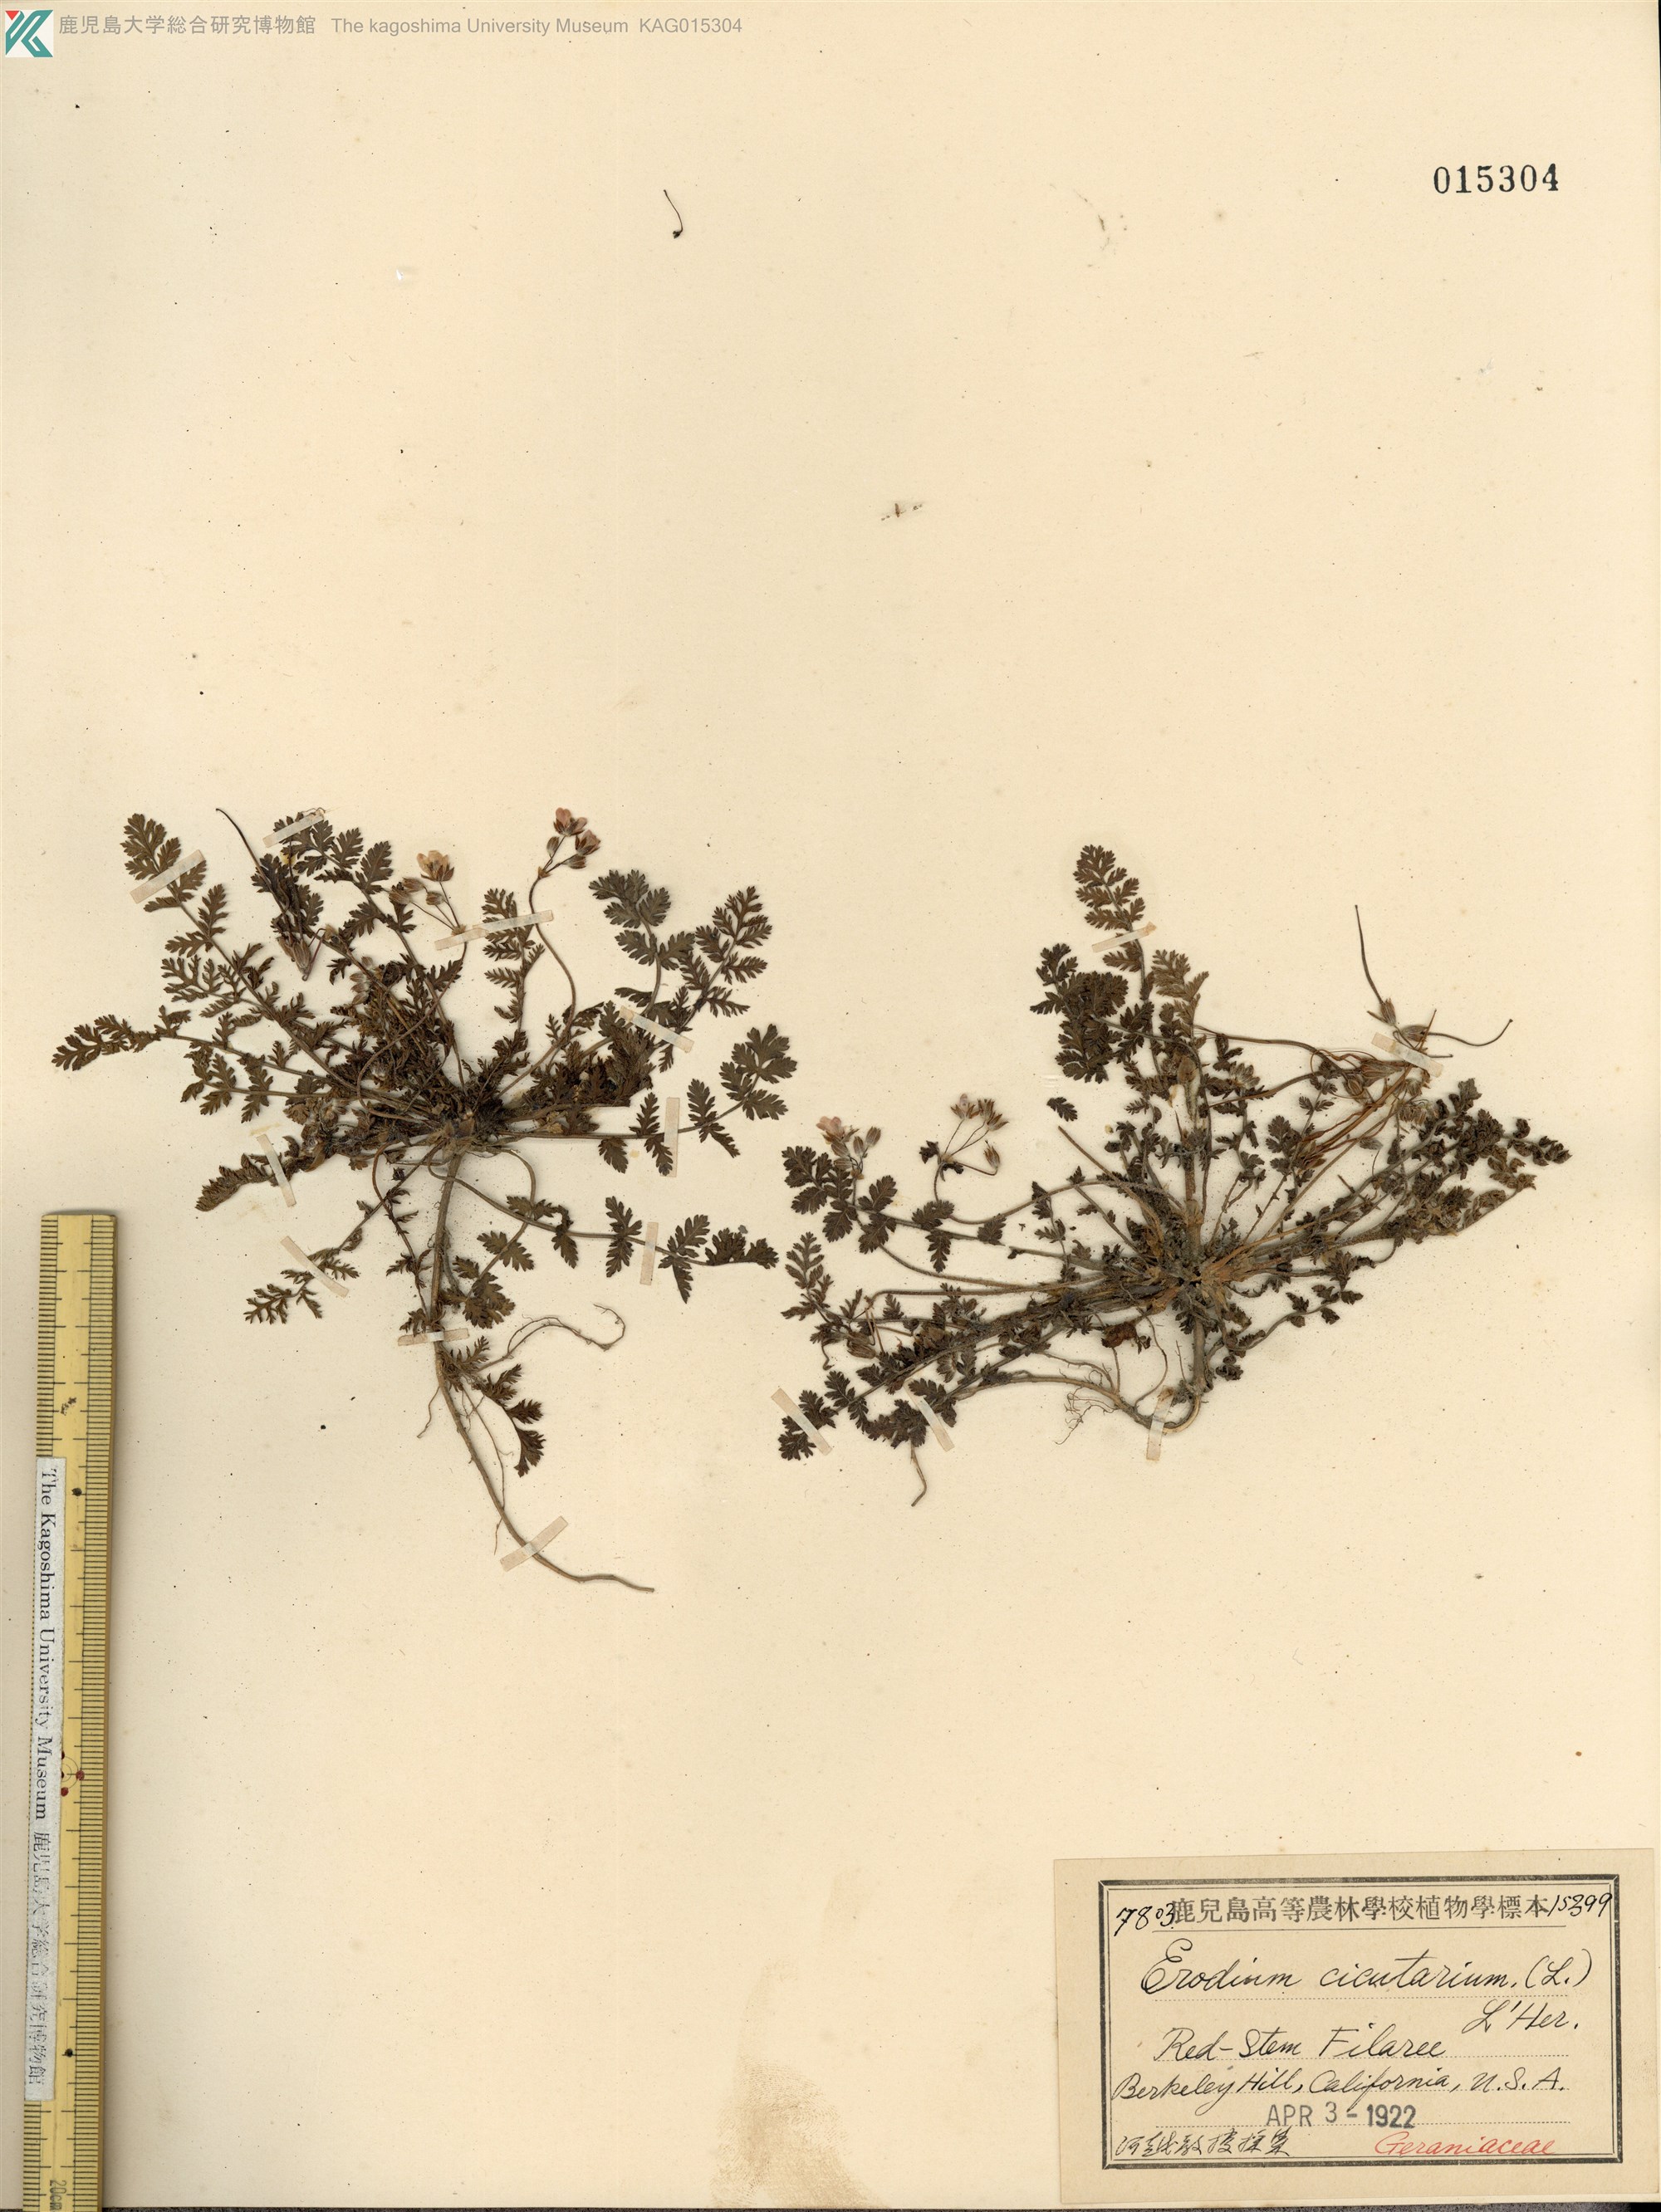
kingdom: Plantae
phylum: Tracheophyta
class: Magnoliopsida
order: Geraniales
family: Geraniaceae
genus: Erodium
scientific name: Erodium cicutarium
